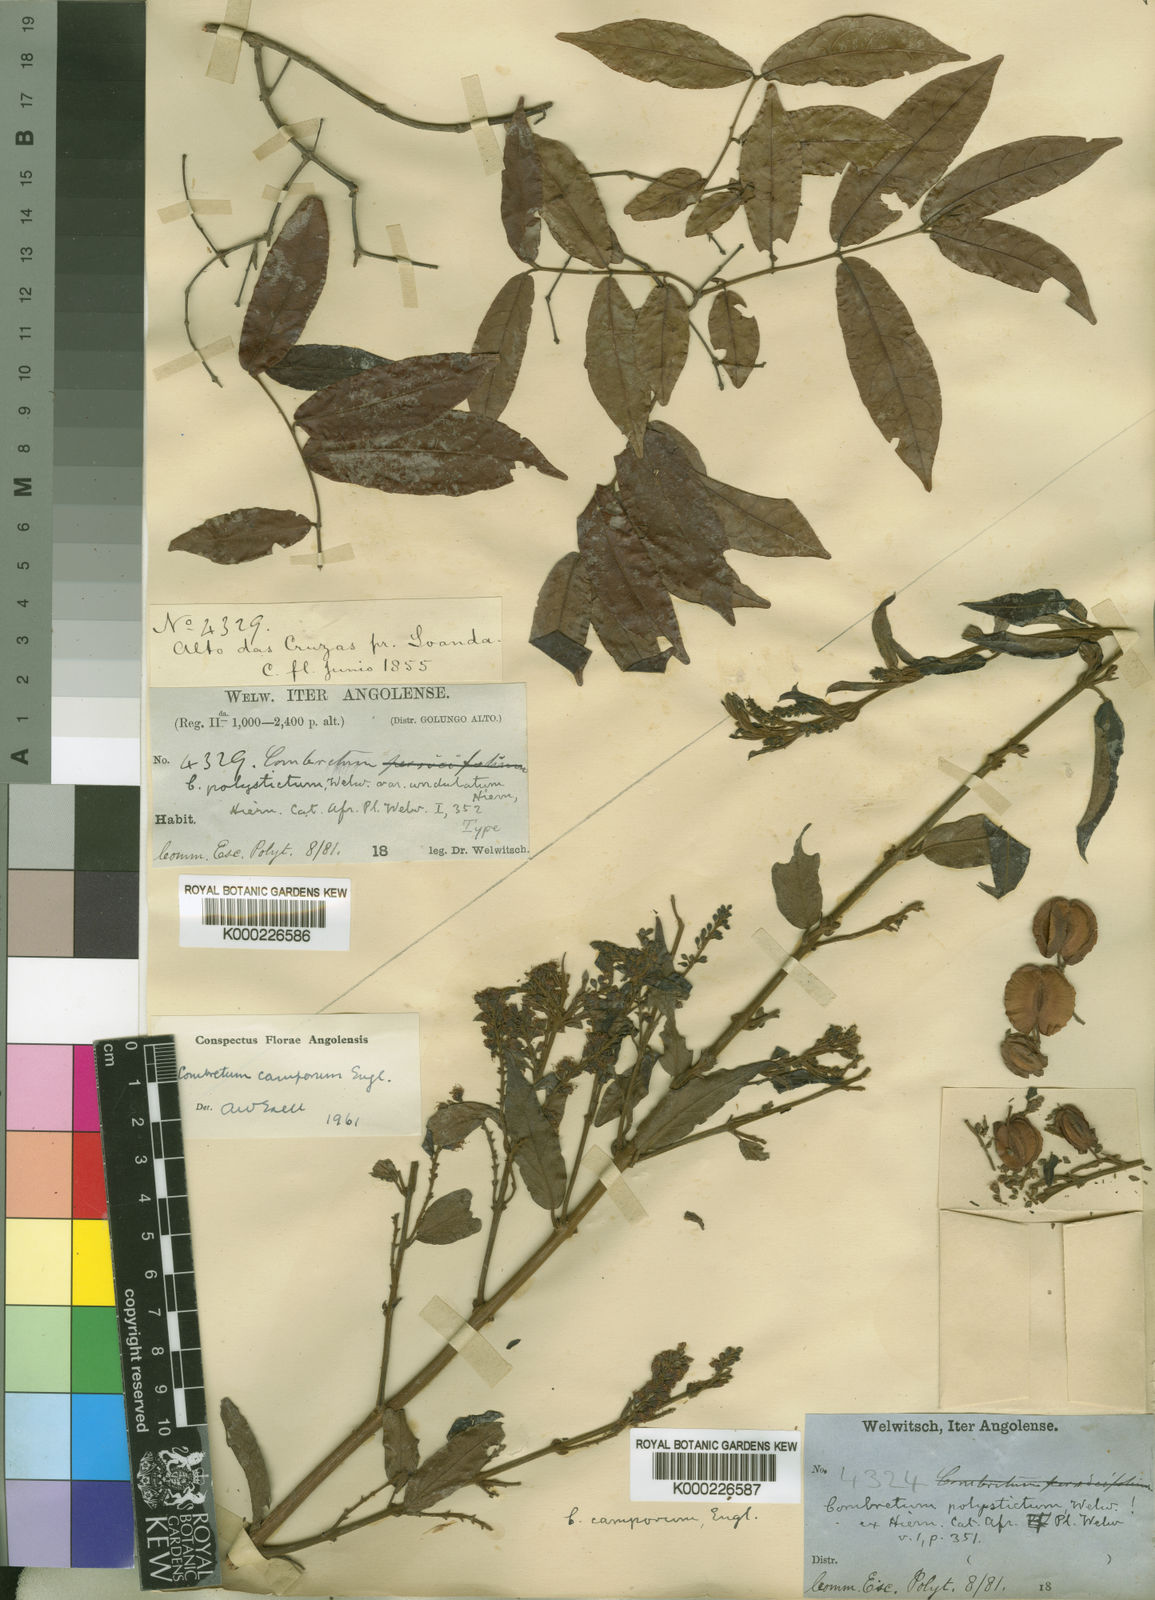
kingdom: Plantae
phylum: Tracheophyta
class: Magnoliopsida
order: Myrtales
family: Combretaceae
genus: Combretum
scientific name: Combretum camporum
